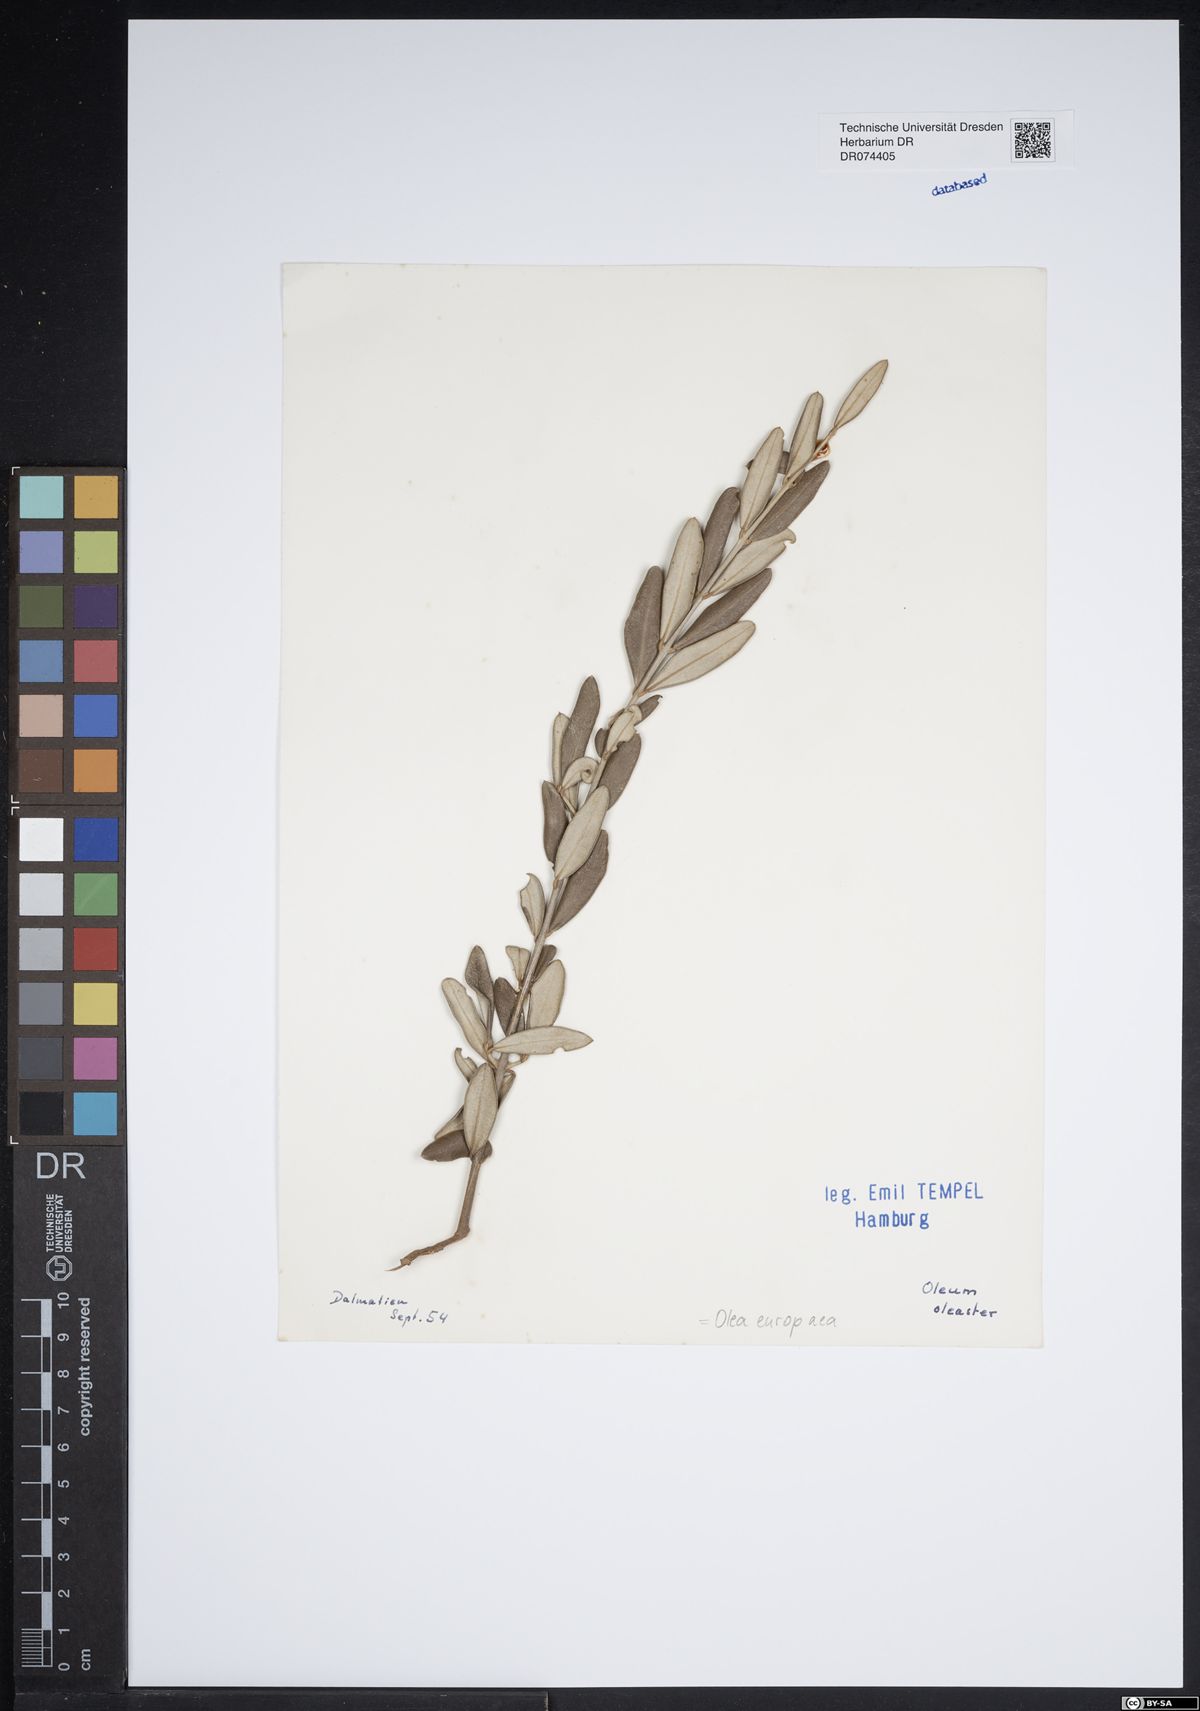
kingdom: Plantae
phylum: Tracheophyta
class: Magnoliopsida
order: Lamiales
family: Oleaceae
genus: Olea
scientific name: Olea europaea
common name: Olive
